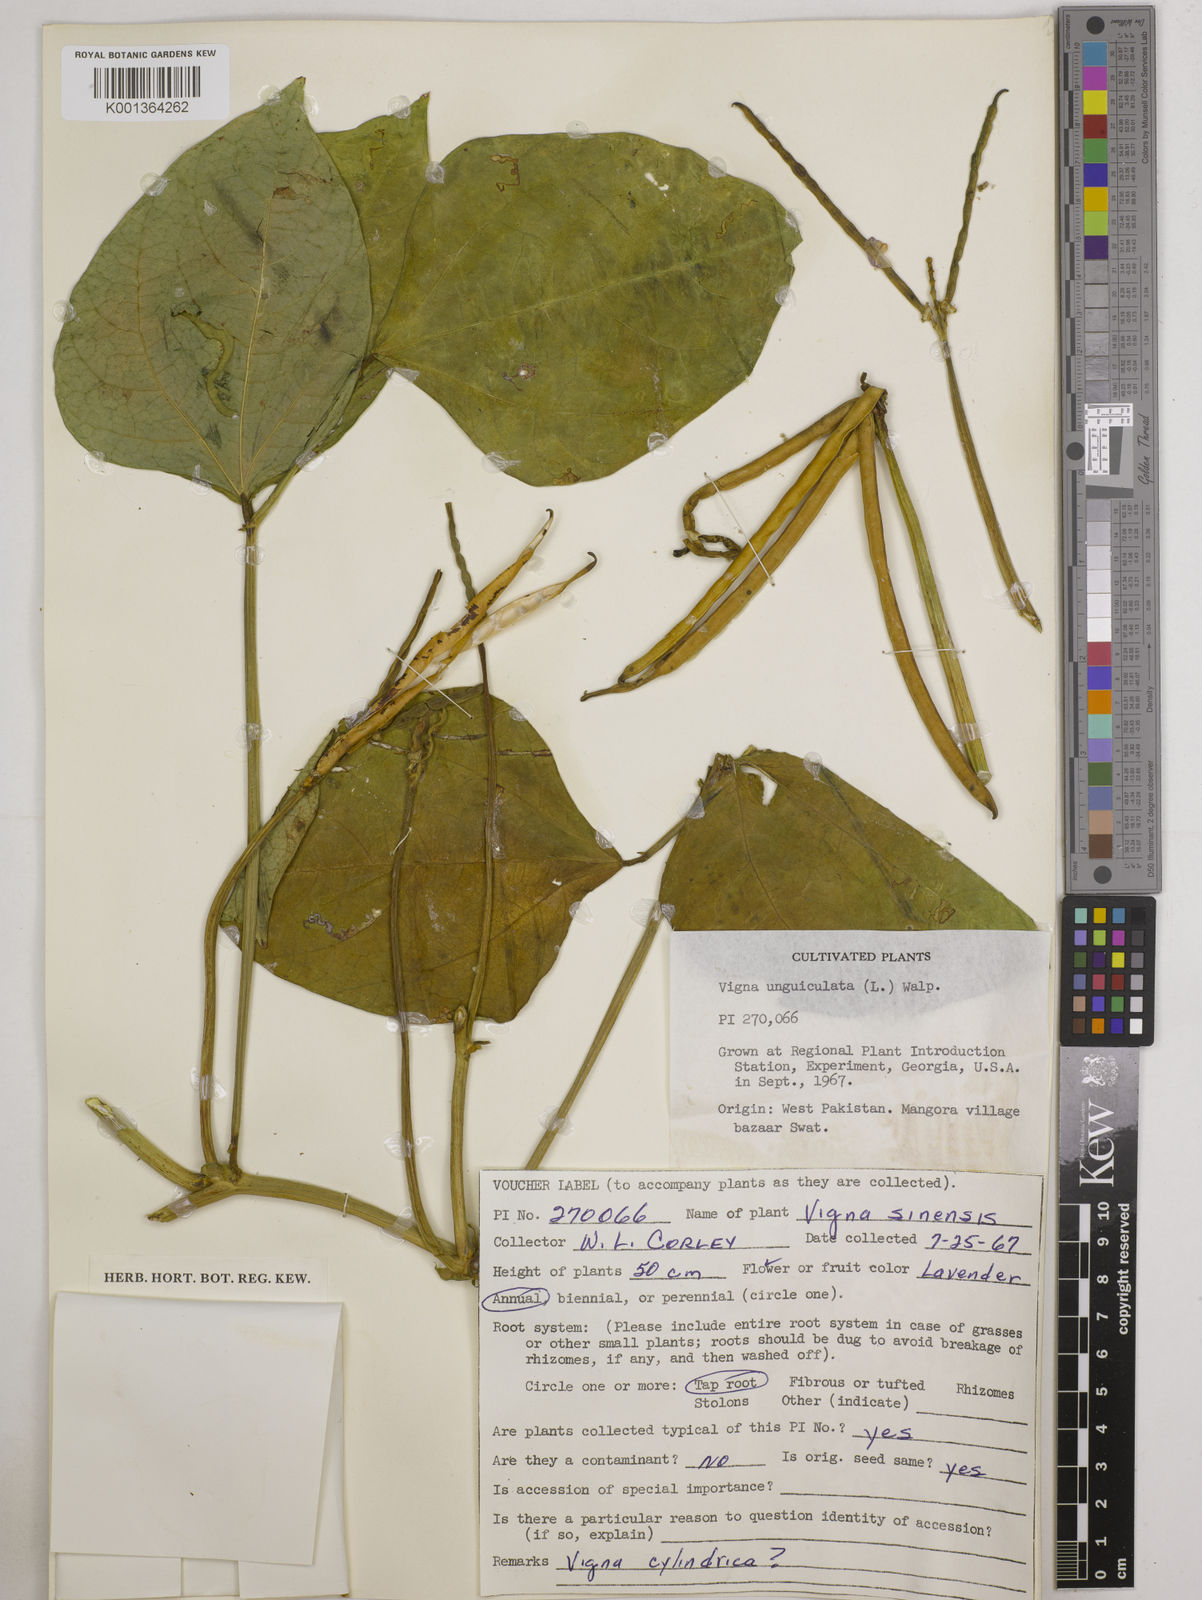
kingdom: Plantae
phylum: Tracheophyta
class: Magnoliopsida
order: Fabales
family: Fabaceae
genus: Vigna
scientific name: Vigna
